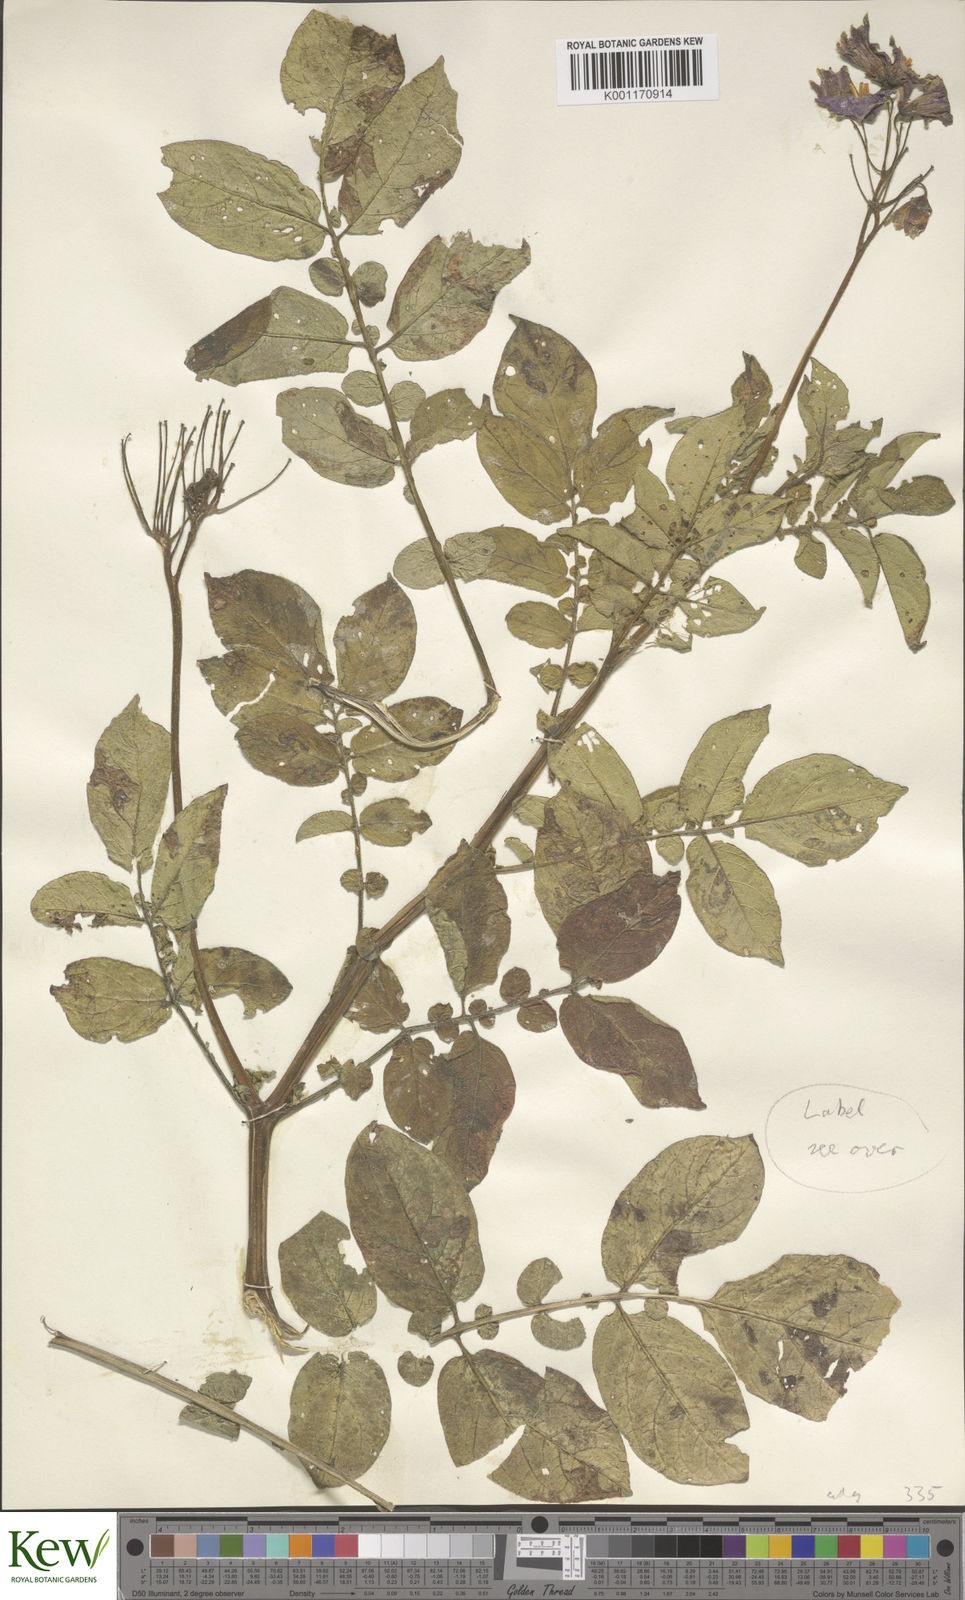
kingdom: Plantae
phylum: Tracheophyta
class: Magnoliopsida
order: Solanales
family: Solanaceae
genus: Solanum
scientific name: Solanum tuberosum
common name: Potato
